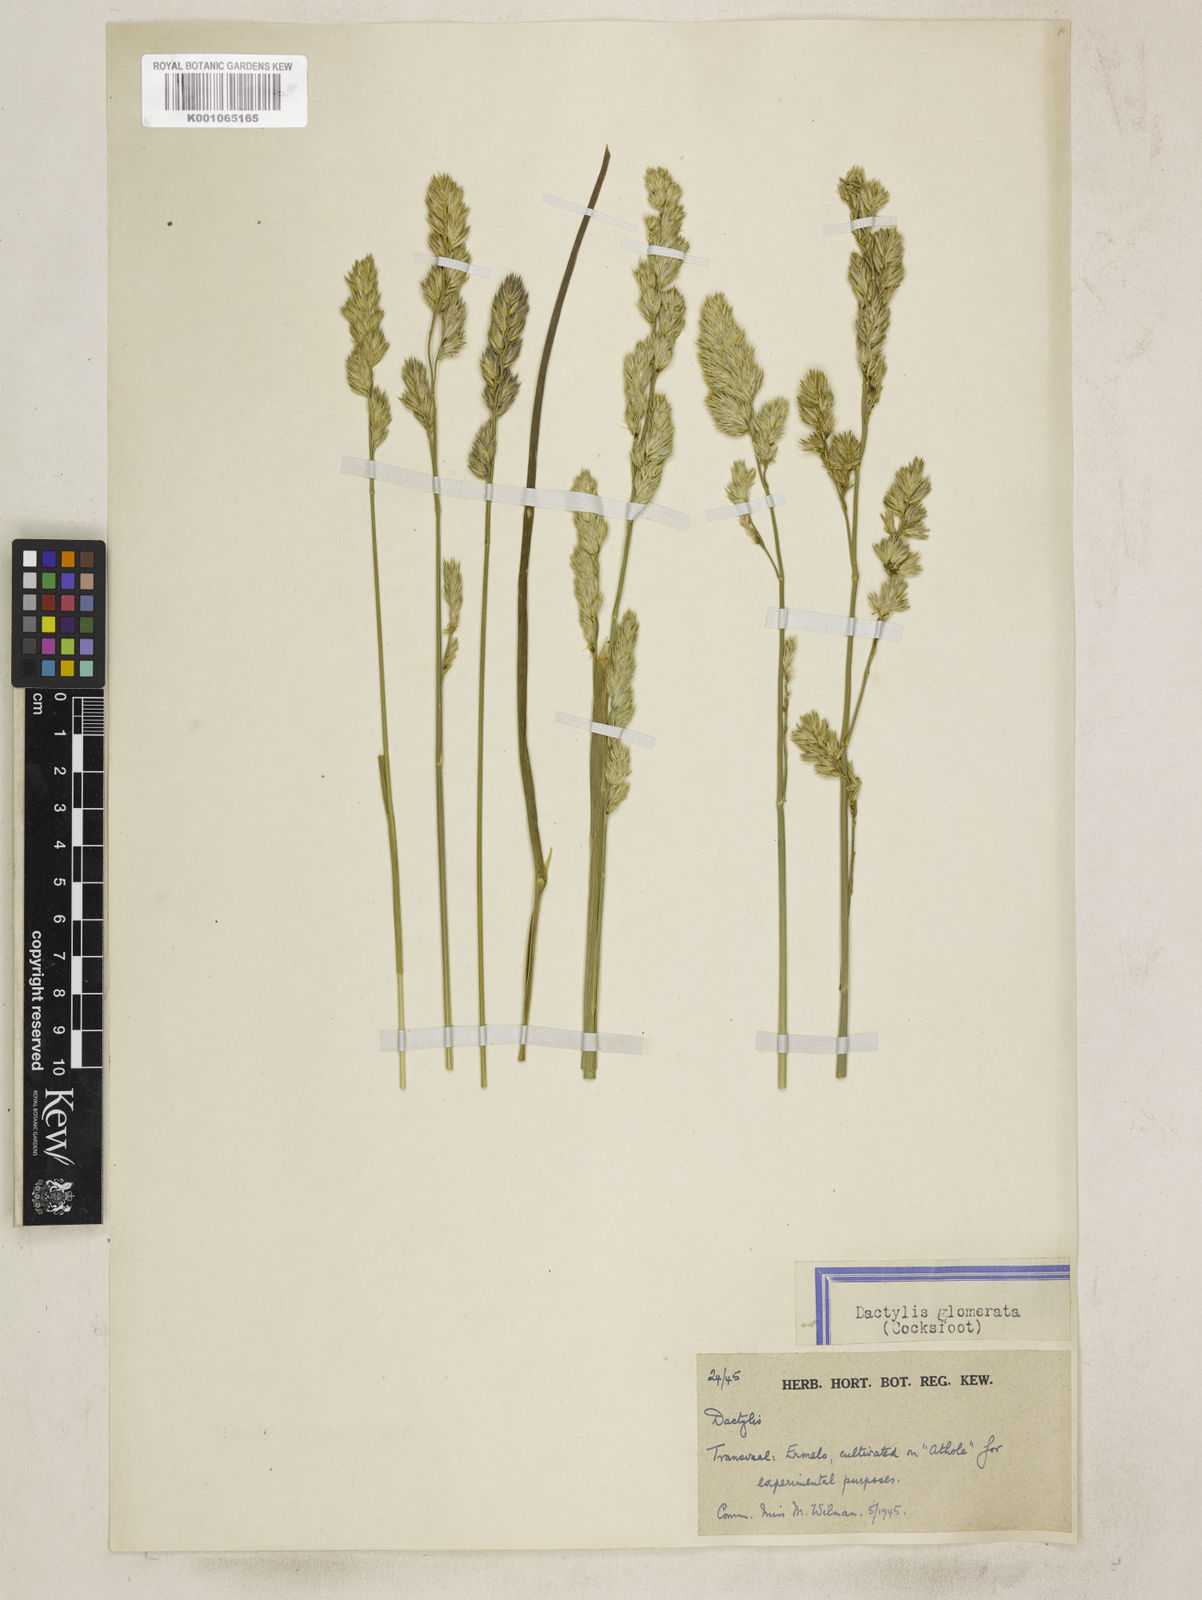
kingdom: Plantae
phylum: Tracheophyta
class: Liliopsida
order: Poales
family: Poaceae
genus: Dactylis
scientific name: Dactylis glomerata
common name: Orchardgrass
